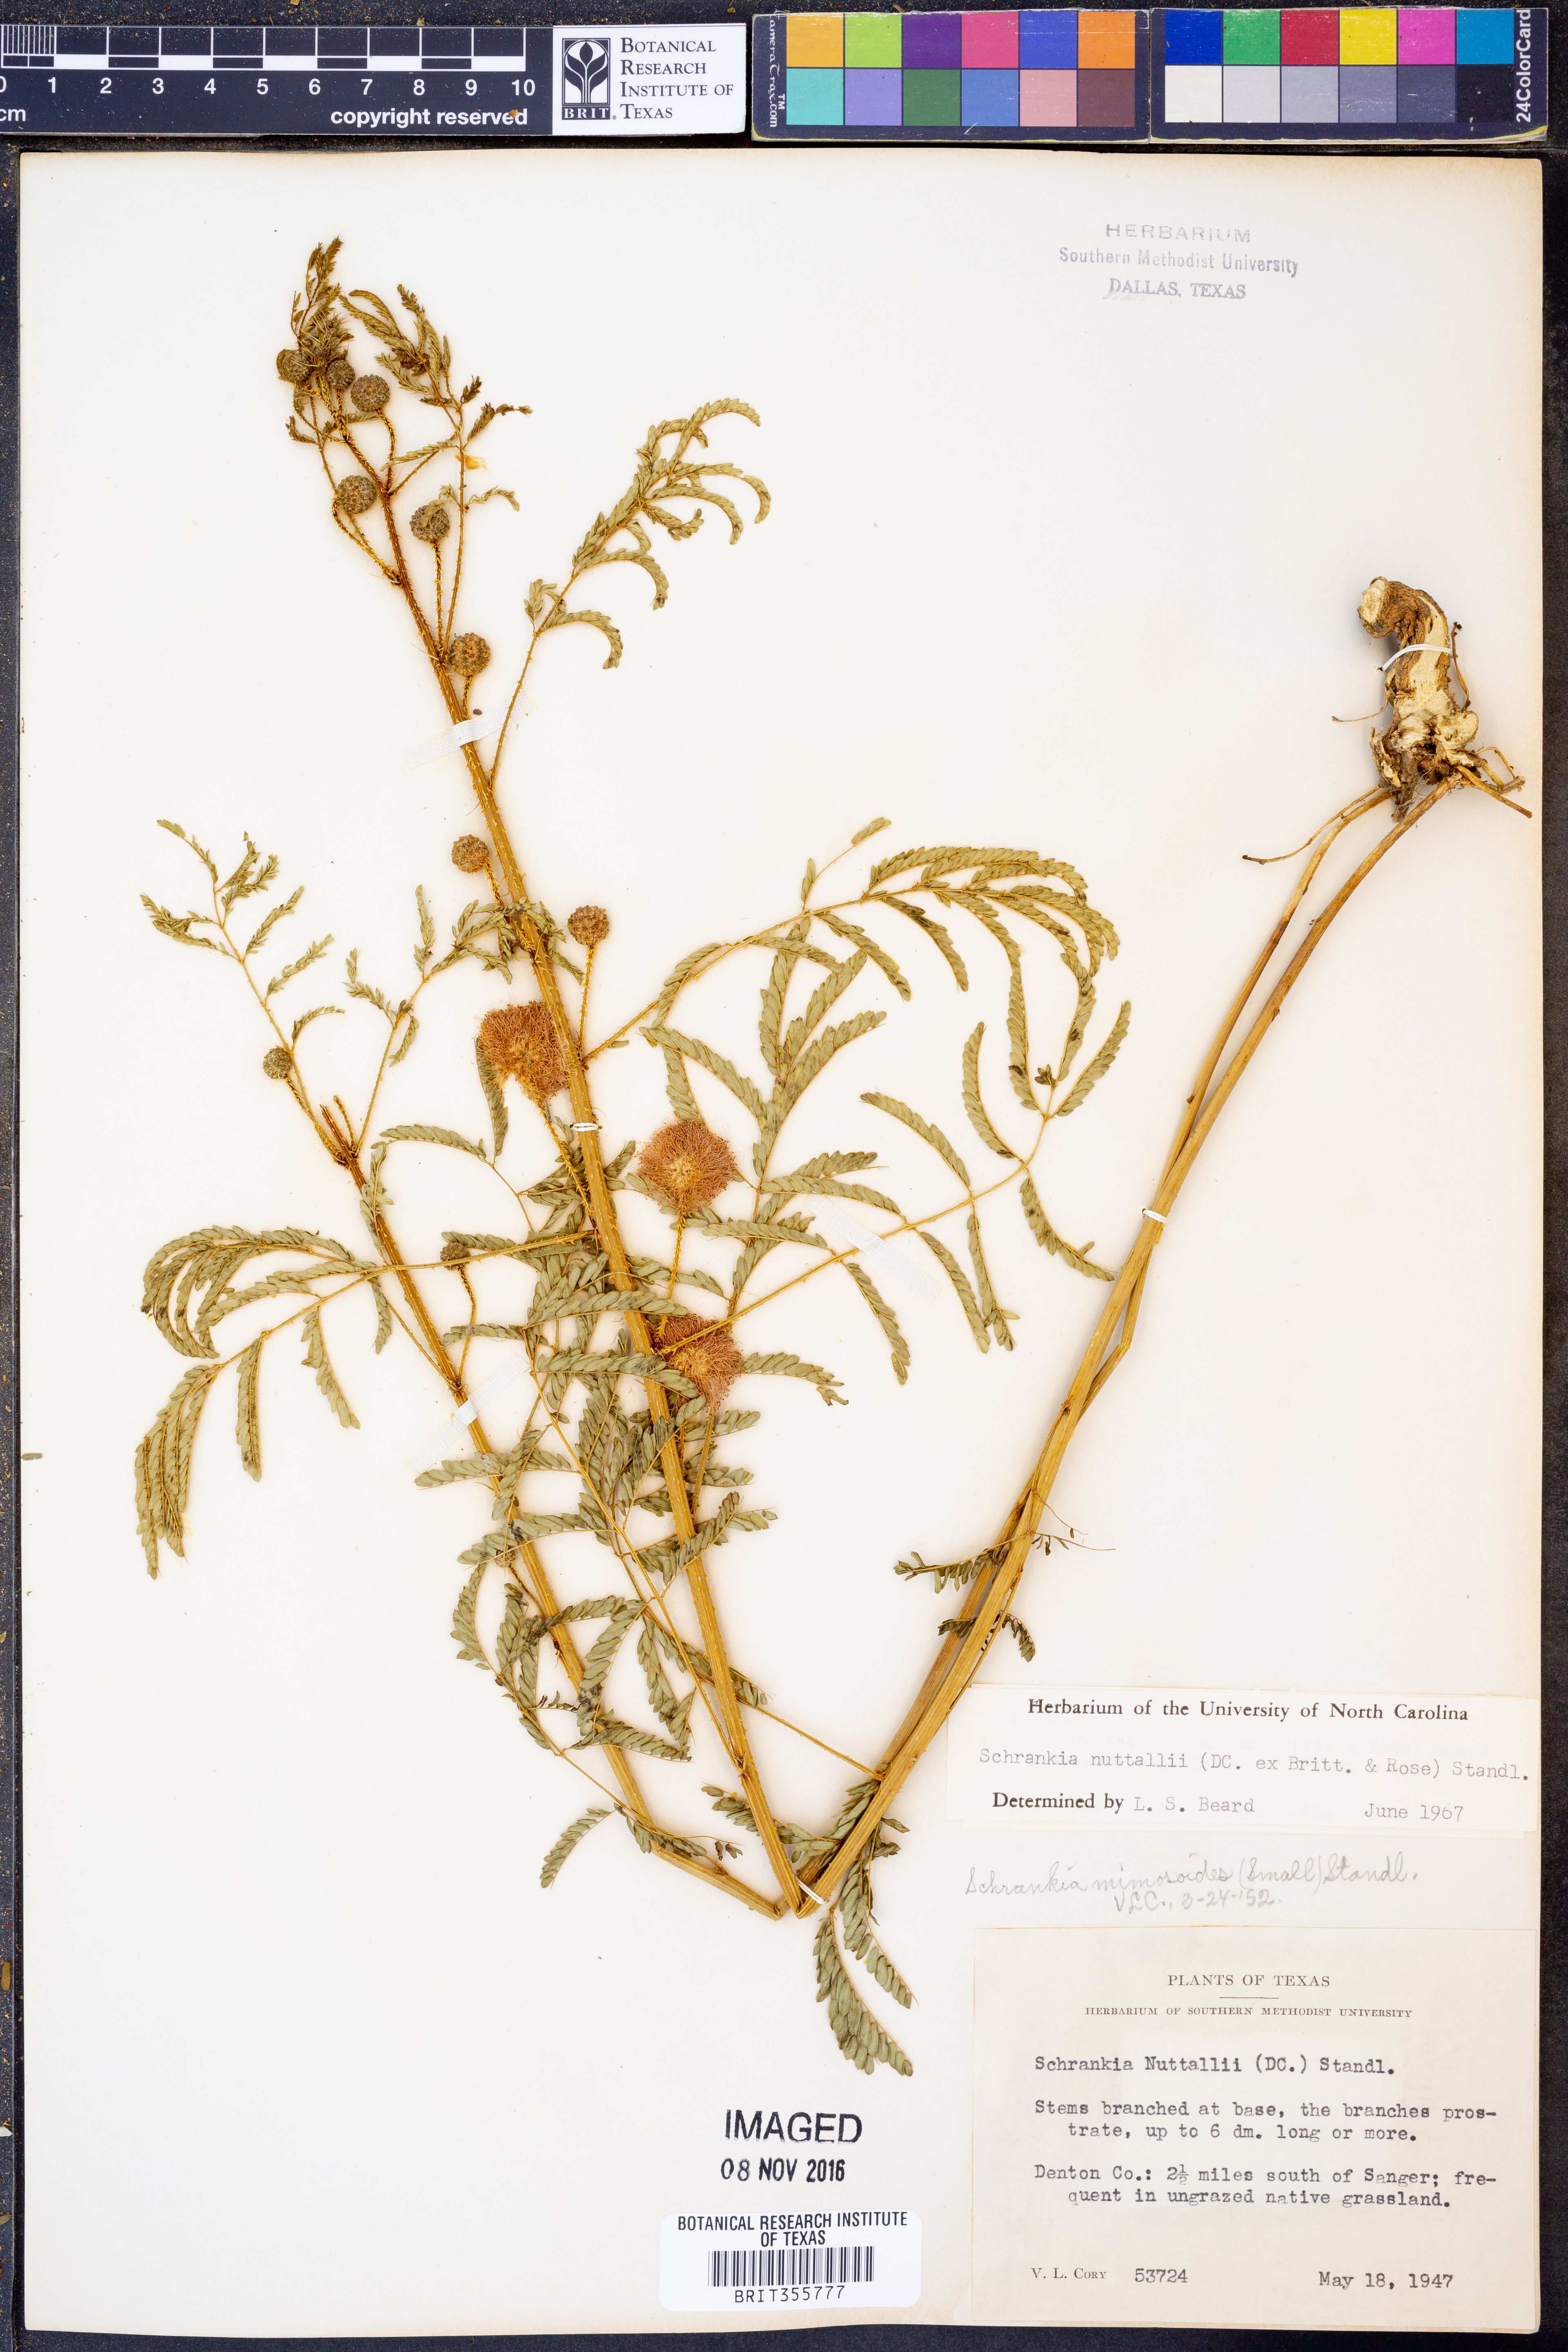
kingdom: Plantae
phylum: Tracheophyta
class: Magnoliopsida
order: Fabales
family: Fabaceae
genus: Mimosa
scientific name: Mimosa quadrivalvis
